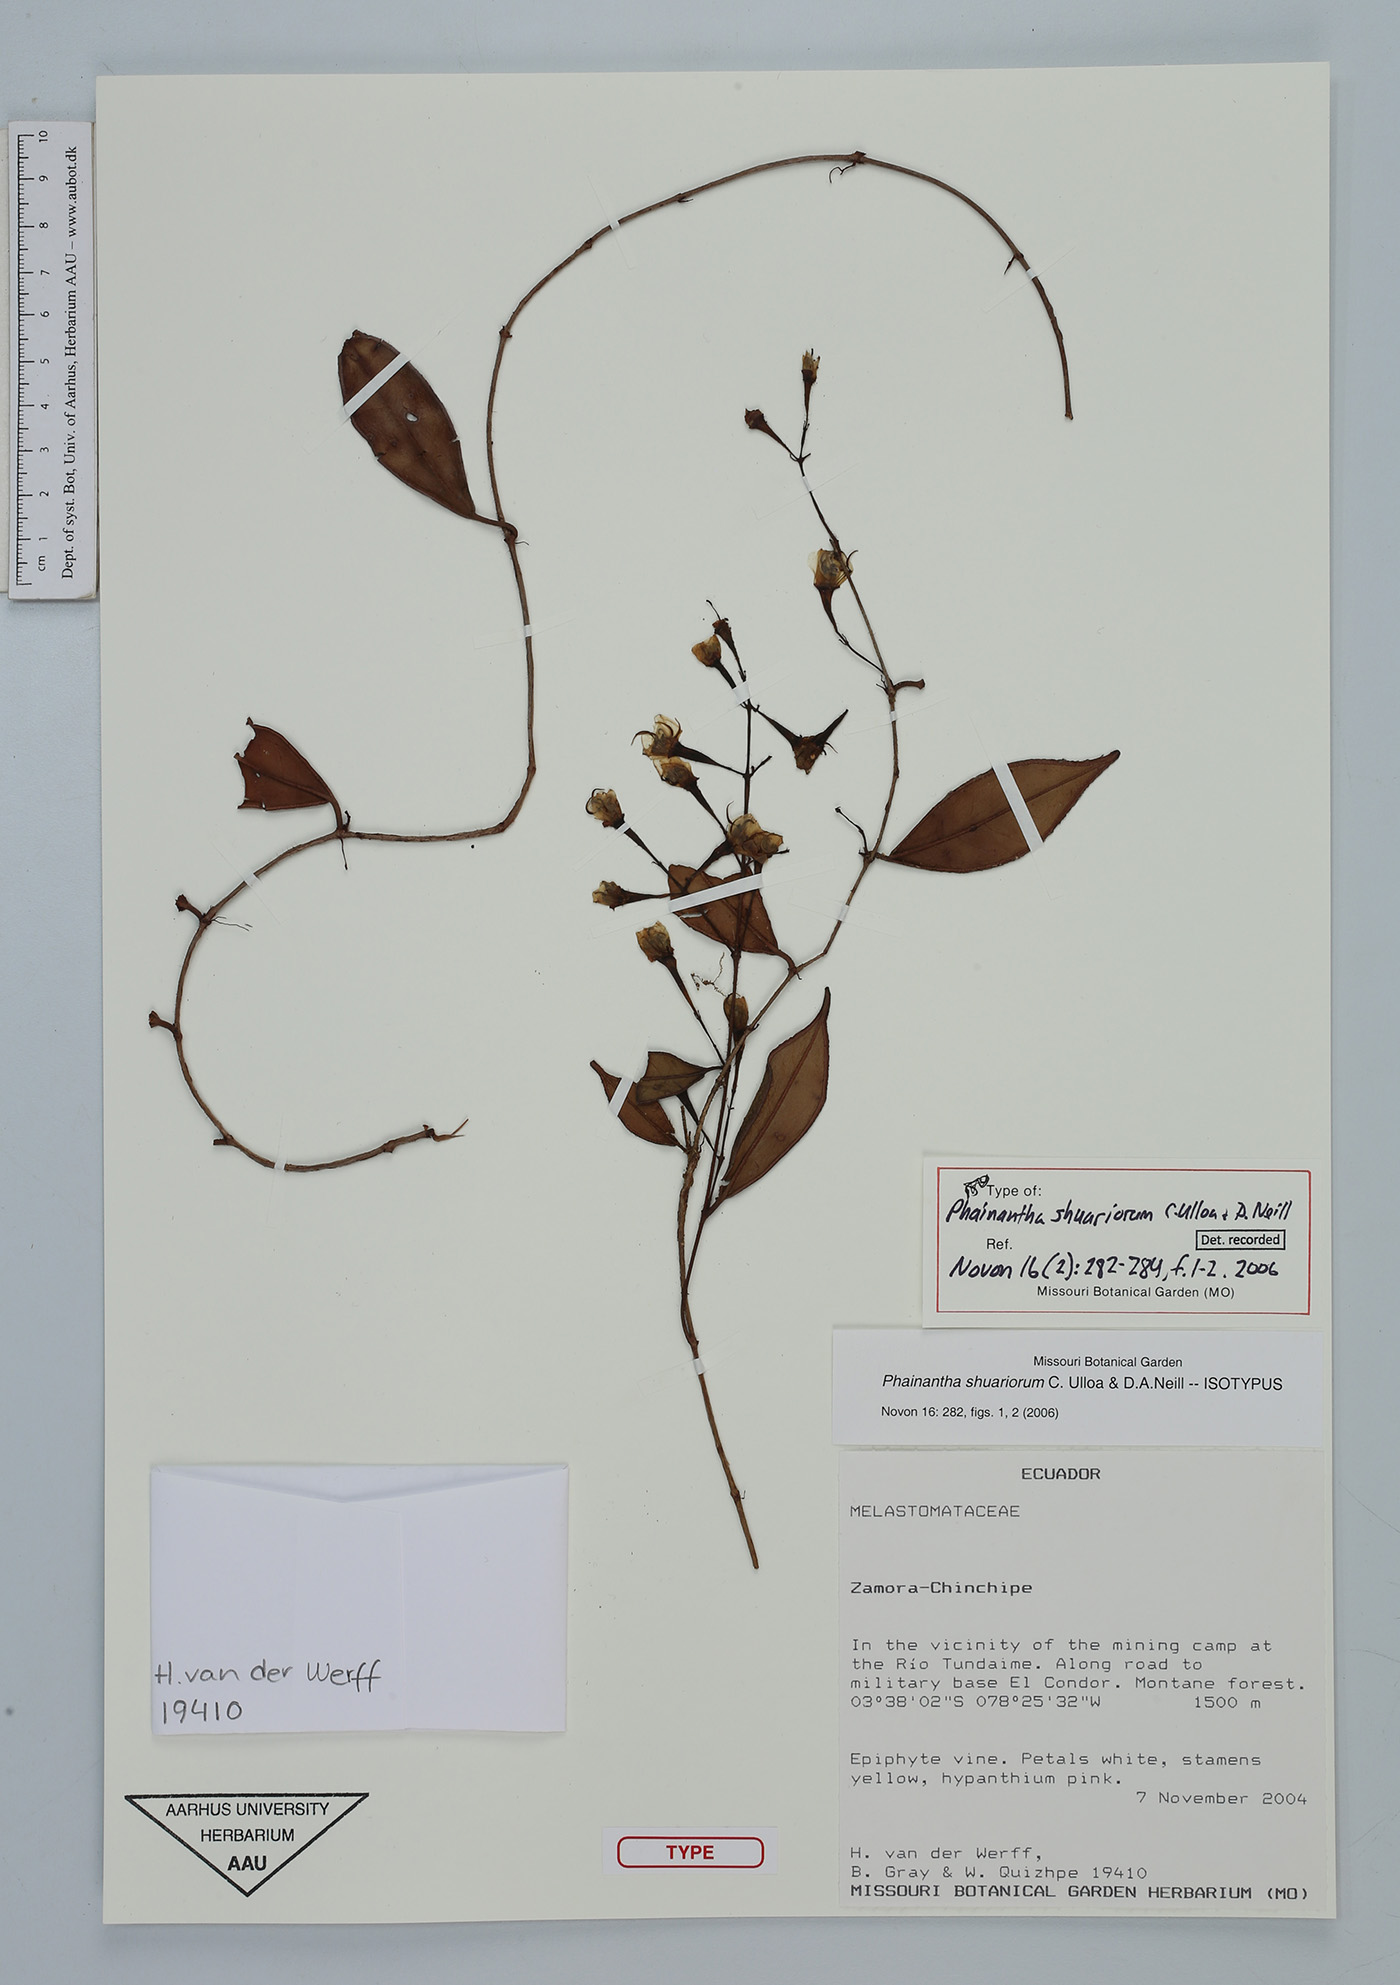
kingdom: Plantae
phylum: Tracheophyta
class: Magnoliopsida
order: Myrtales
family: Melastomataceae
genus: Phainantha
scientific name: Phainantha shuariorum
